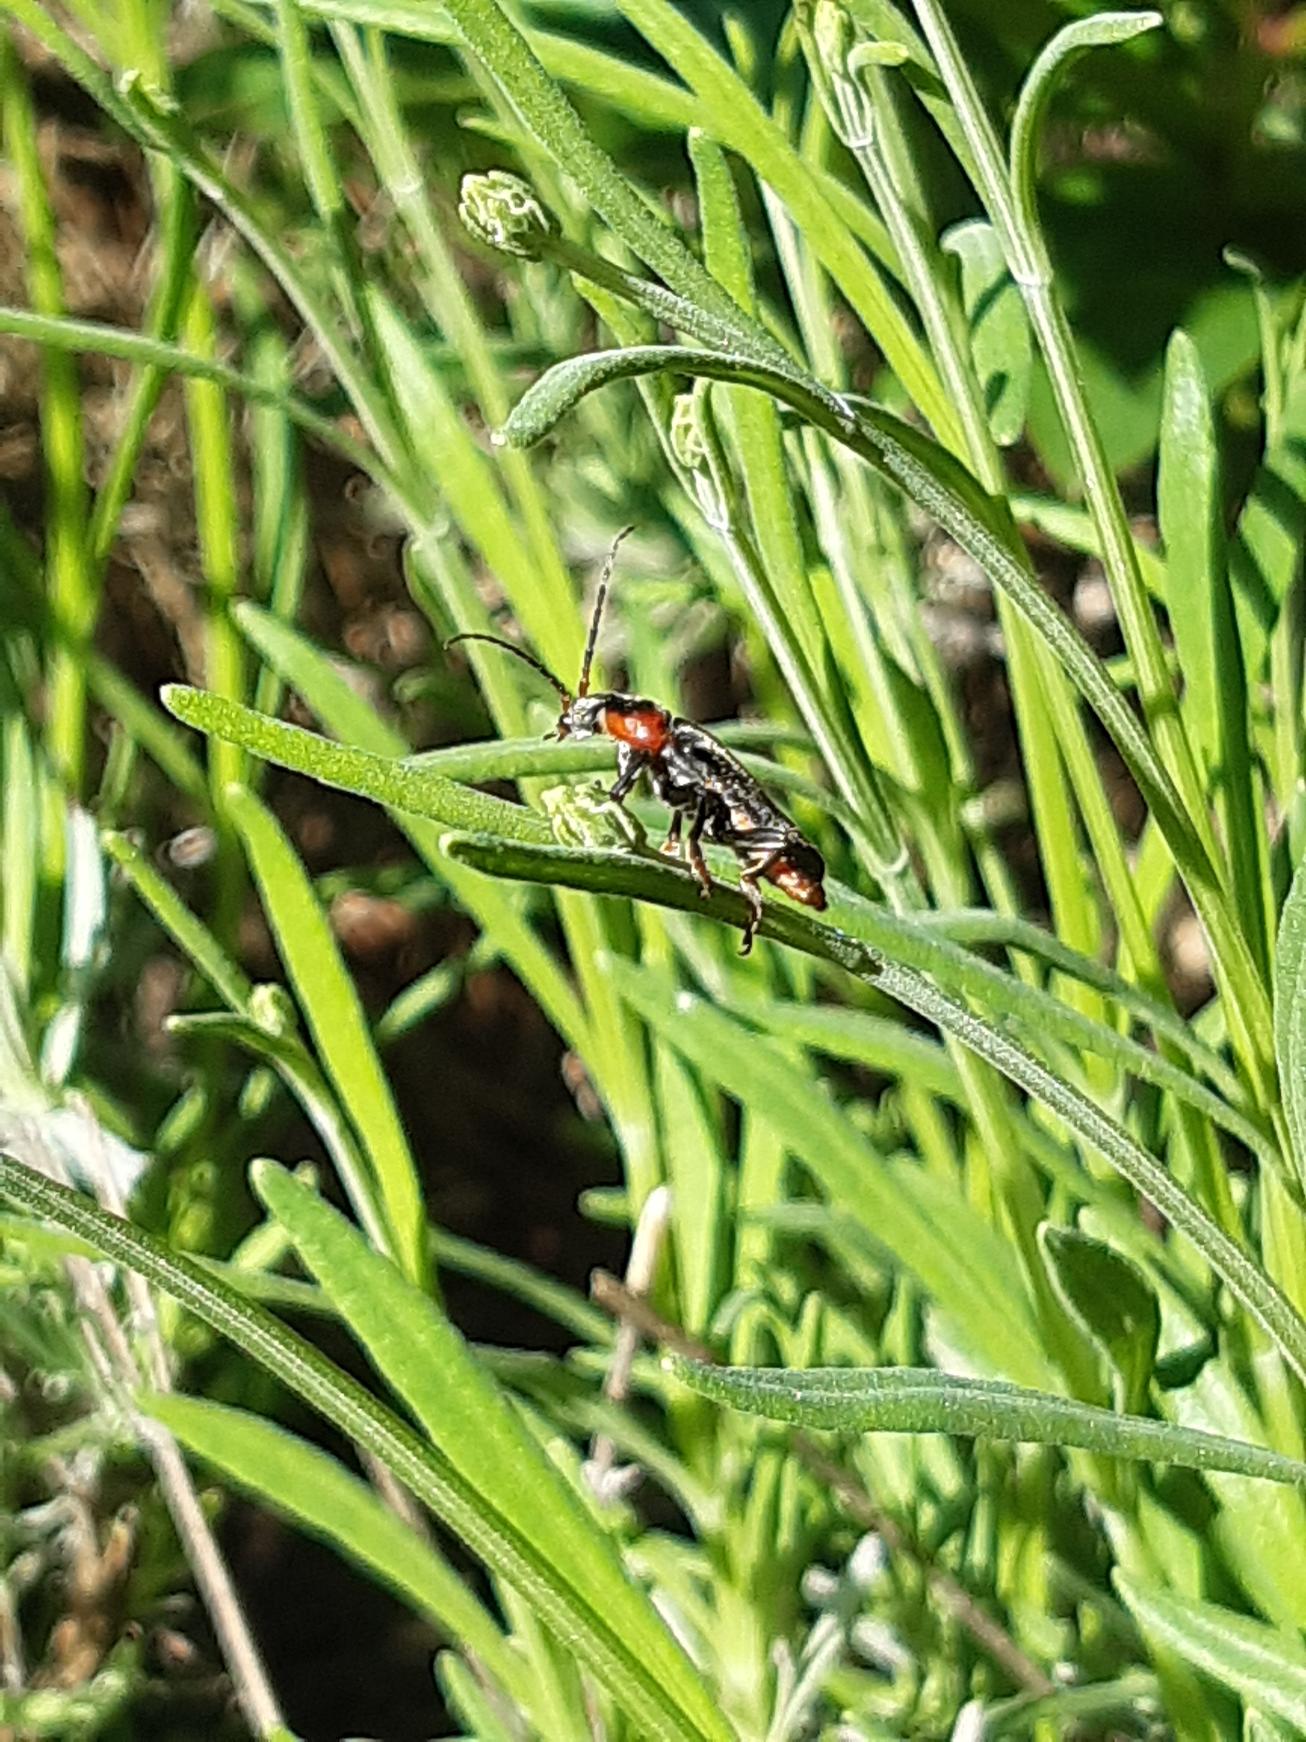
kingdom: Animalia
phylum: Arthropoda
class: Insecta
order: Coleoptera
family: Cantharidae
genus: Cantharis
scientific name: Cantharis fusca
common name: Stor blødvinge
